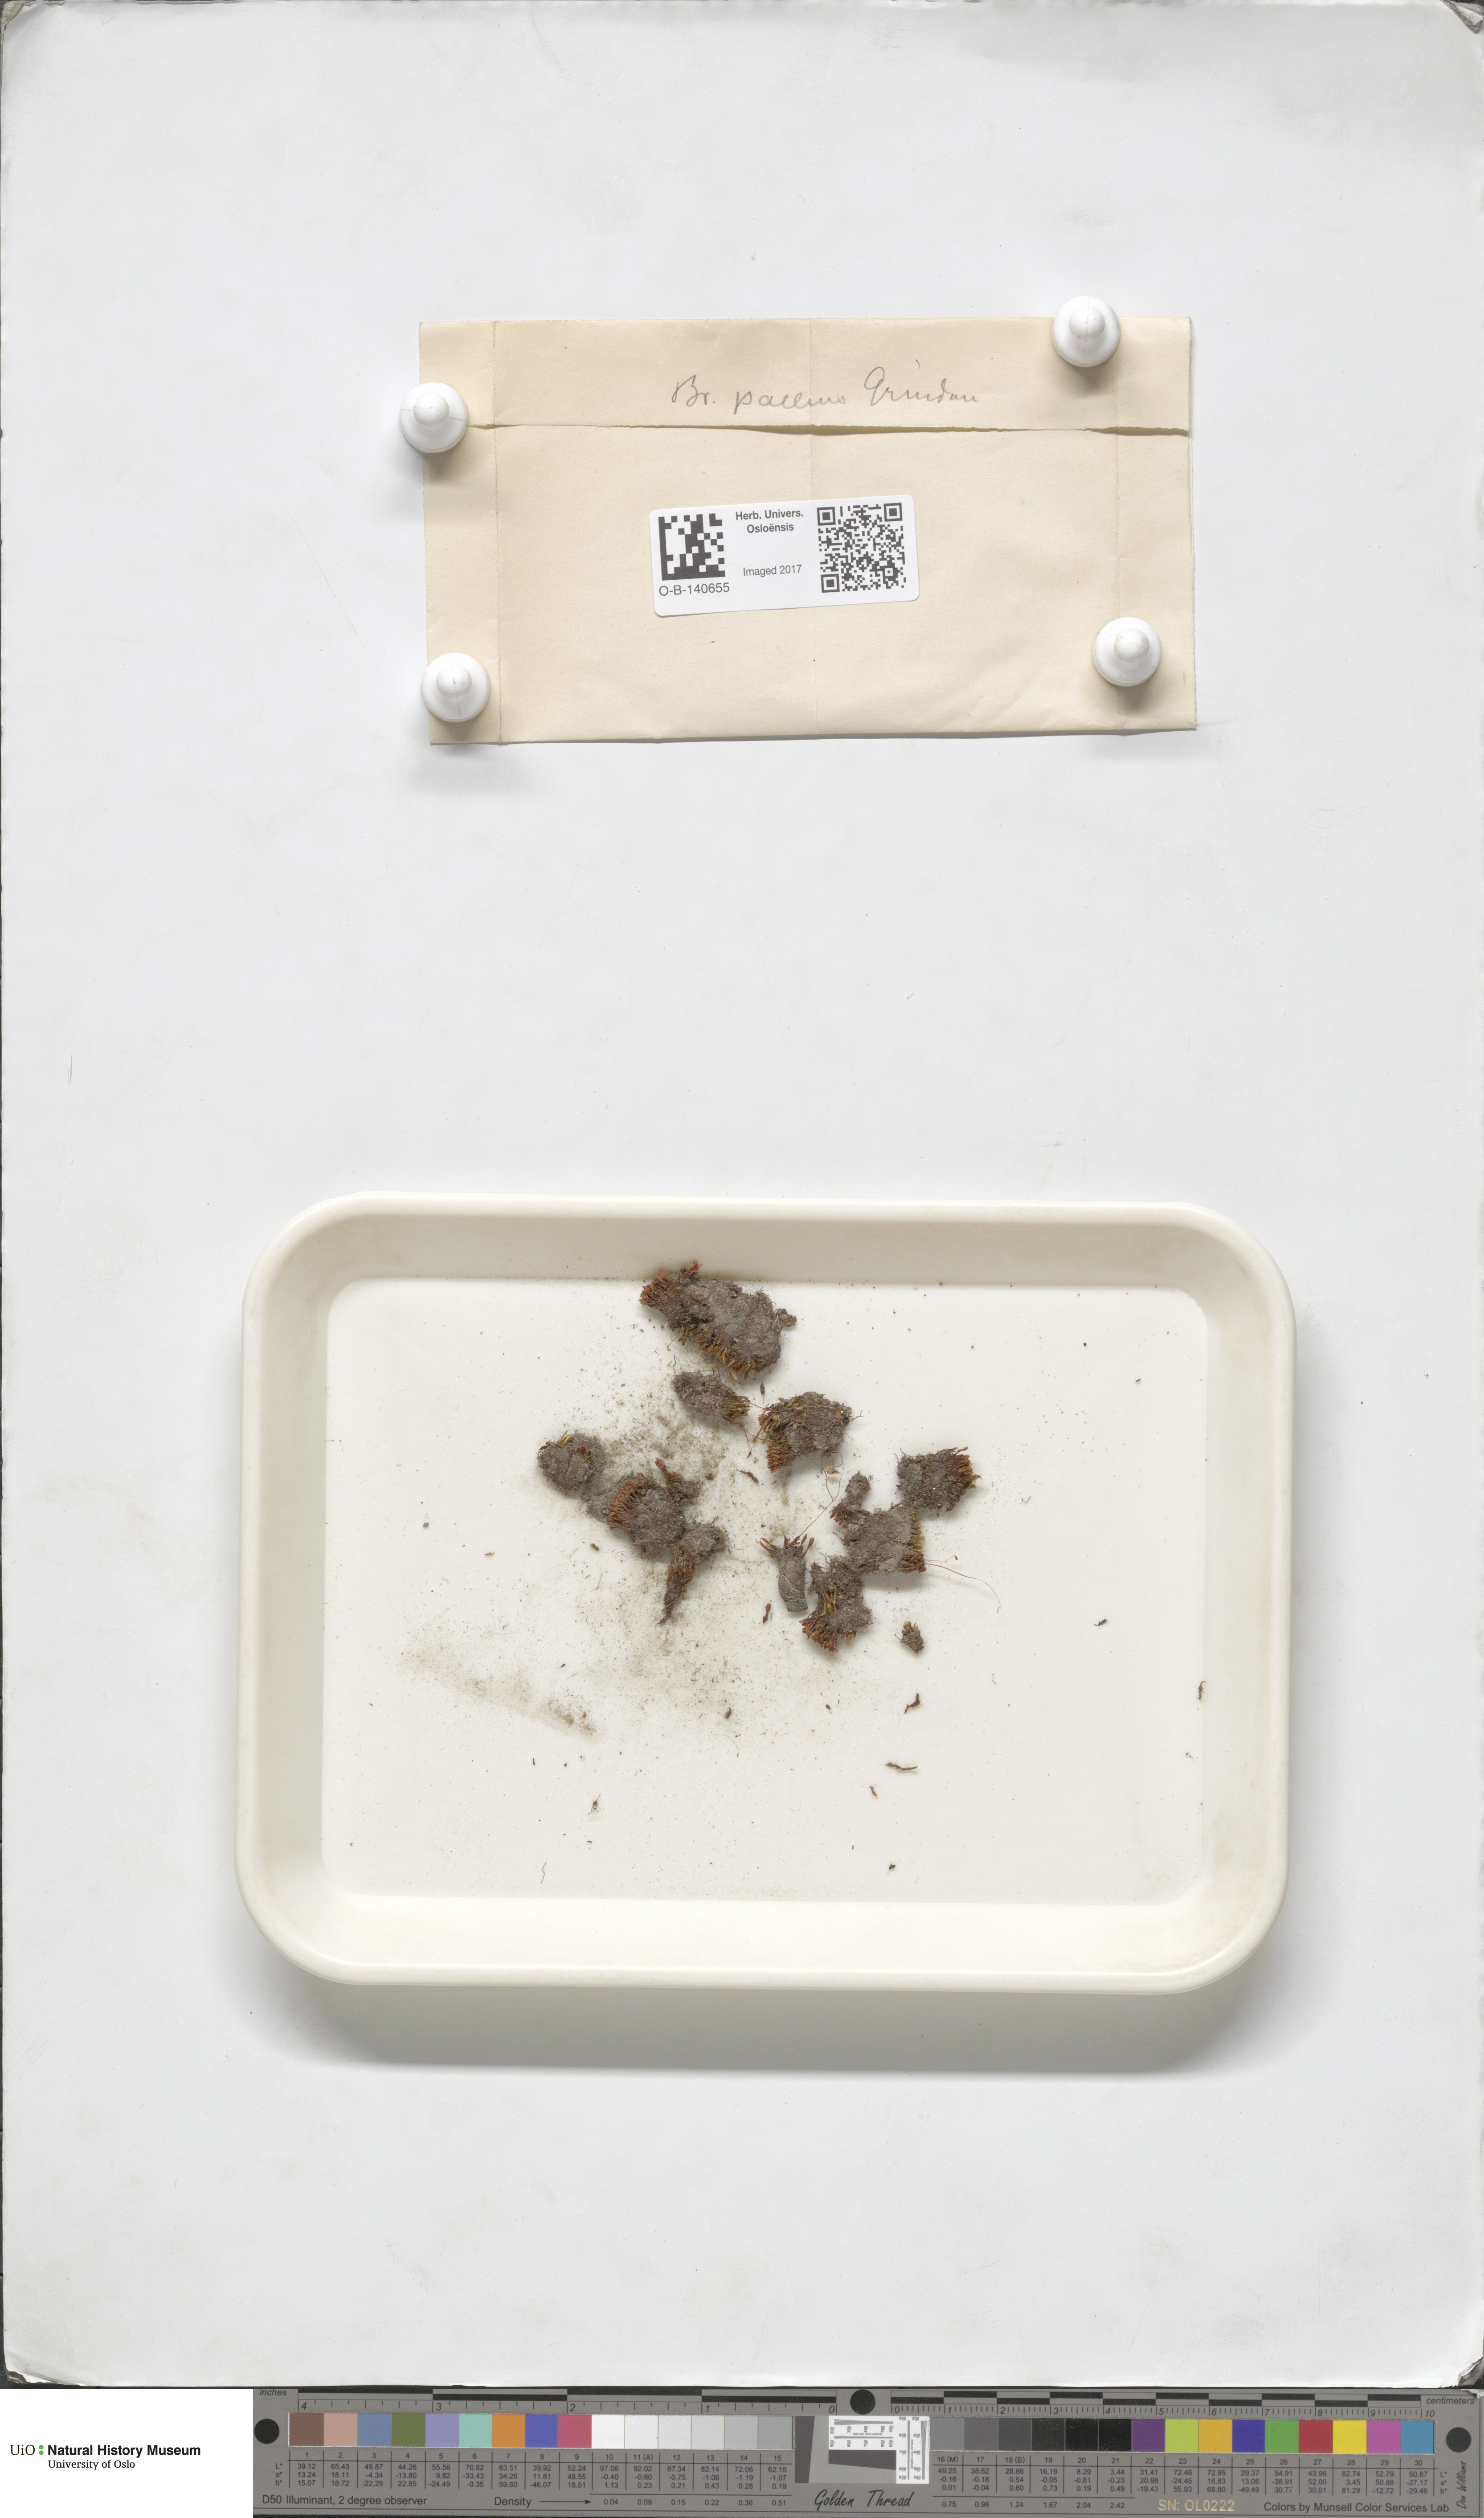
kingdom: Plantae
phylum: Bryophyta
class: Bryopsida
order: Bryales
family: Bryaceae
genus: Ptychostomum
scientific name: Ptychostomum pallens
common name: Pale thread-moss
